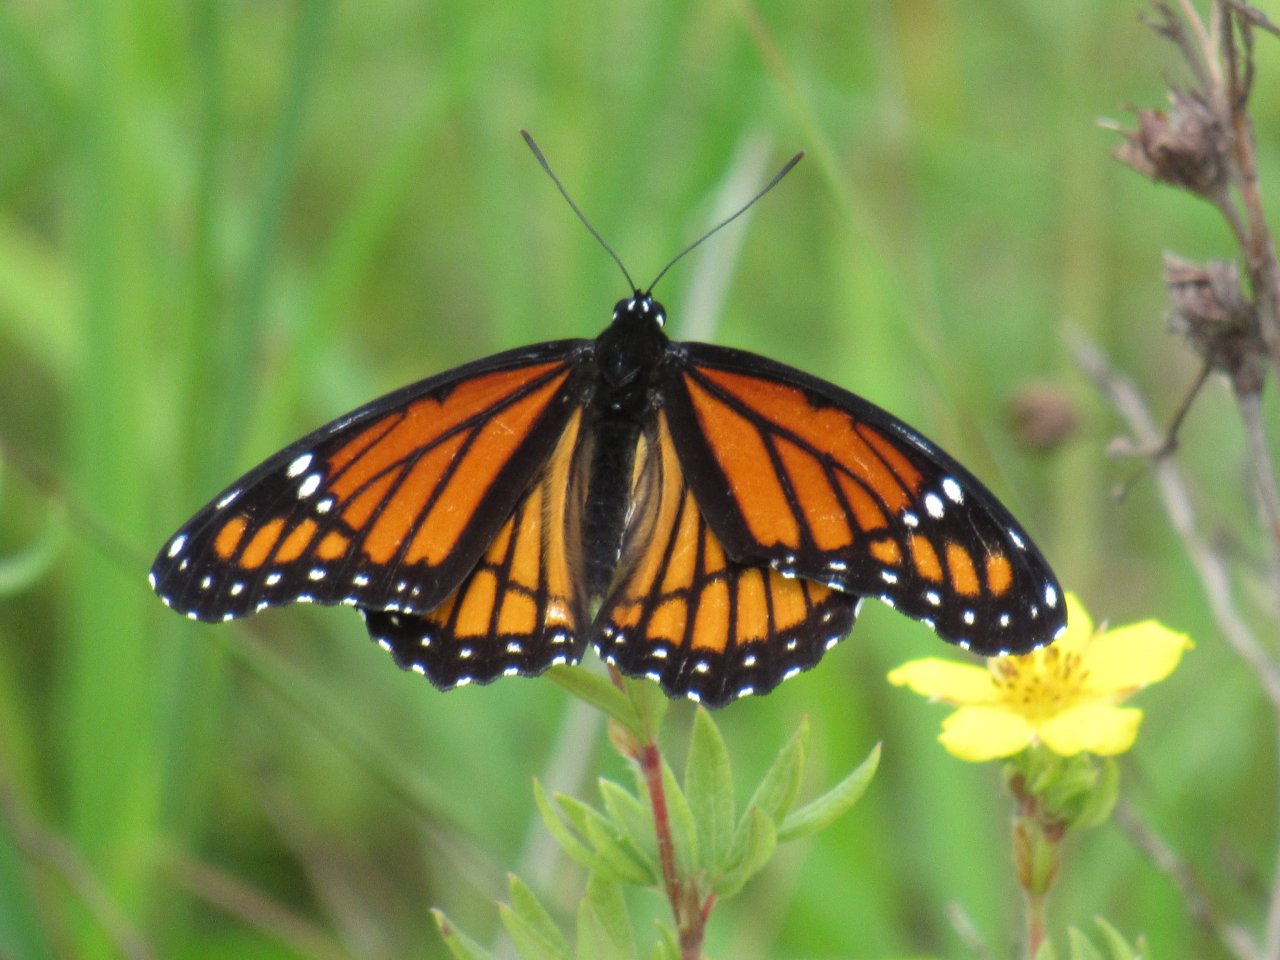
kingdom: Animalia
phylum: Arthropoda
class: Insecta
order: Lepidoptera
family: Nymphalidae
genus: Limenitis
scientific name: Limenitis archippus
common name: Viceroy
